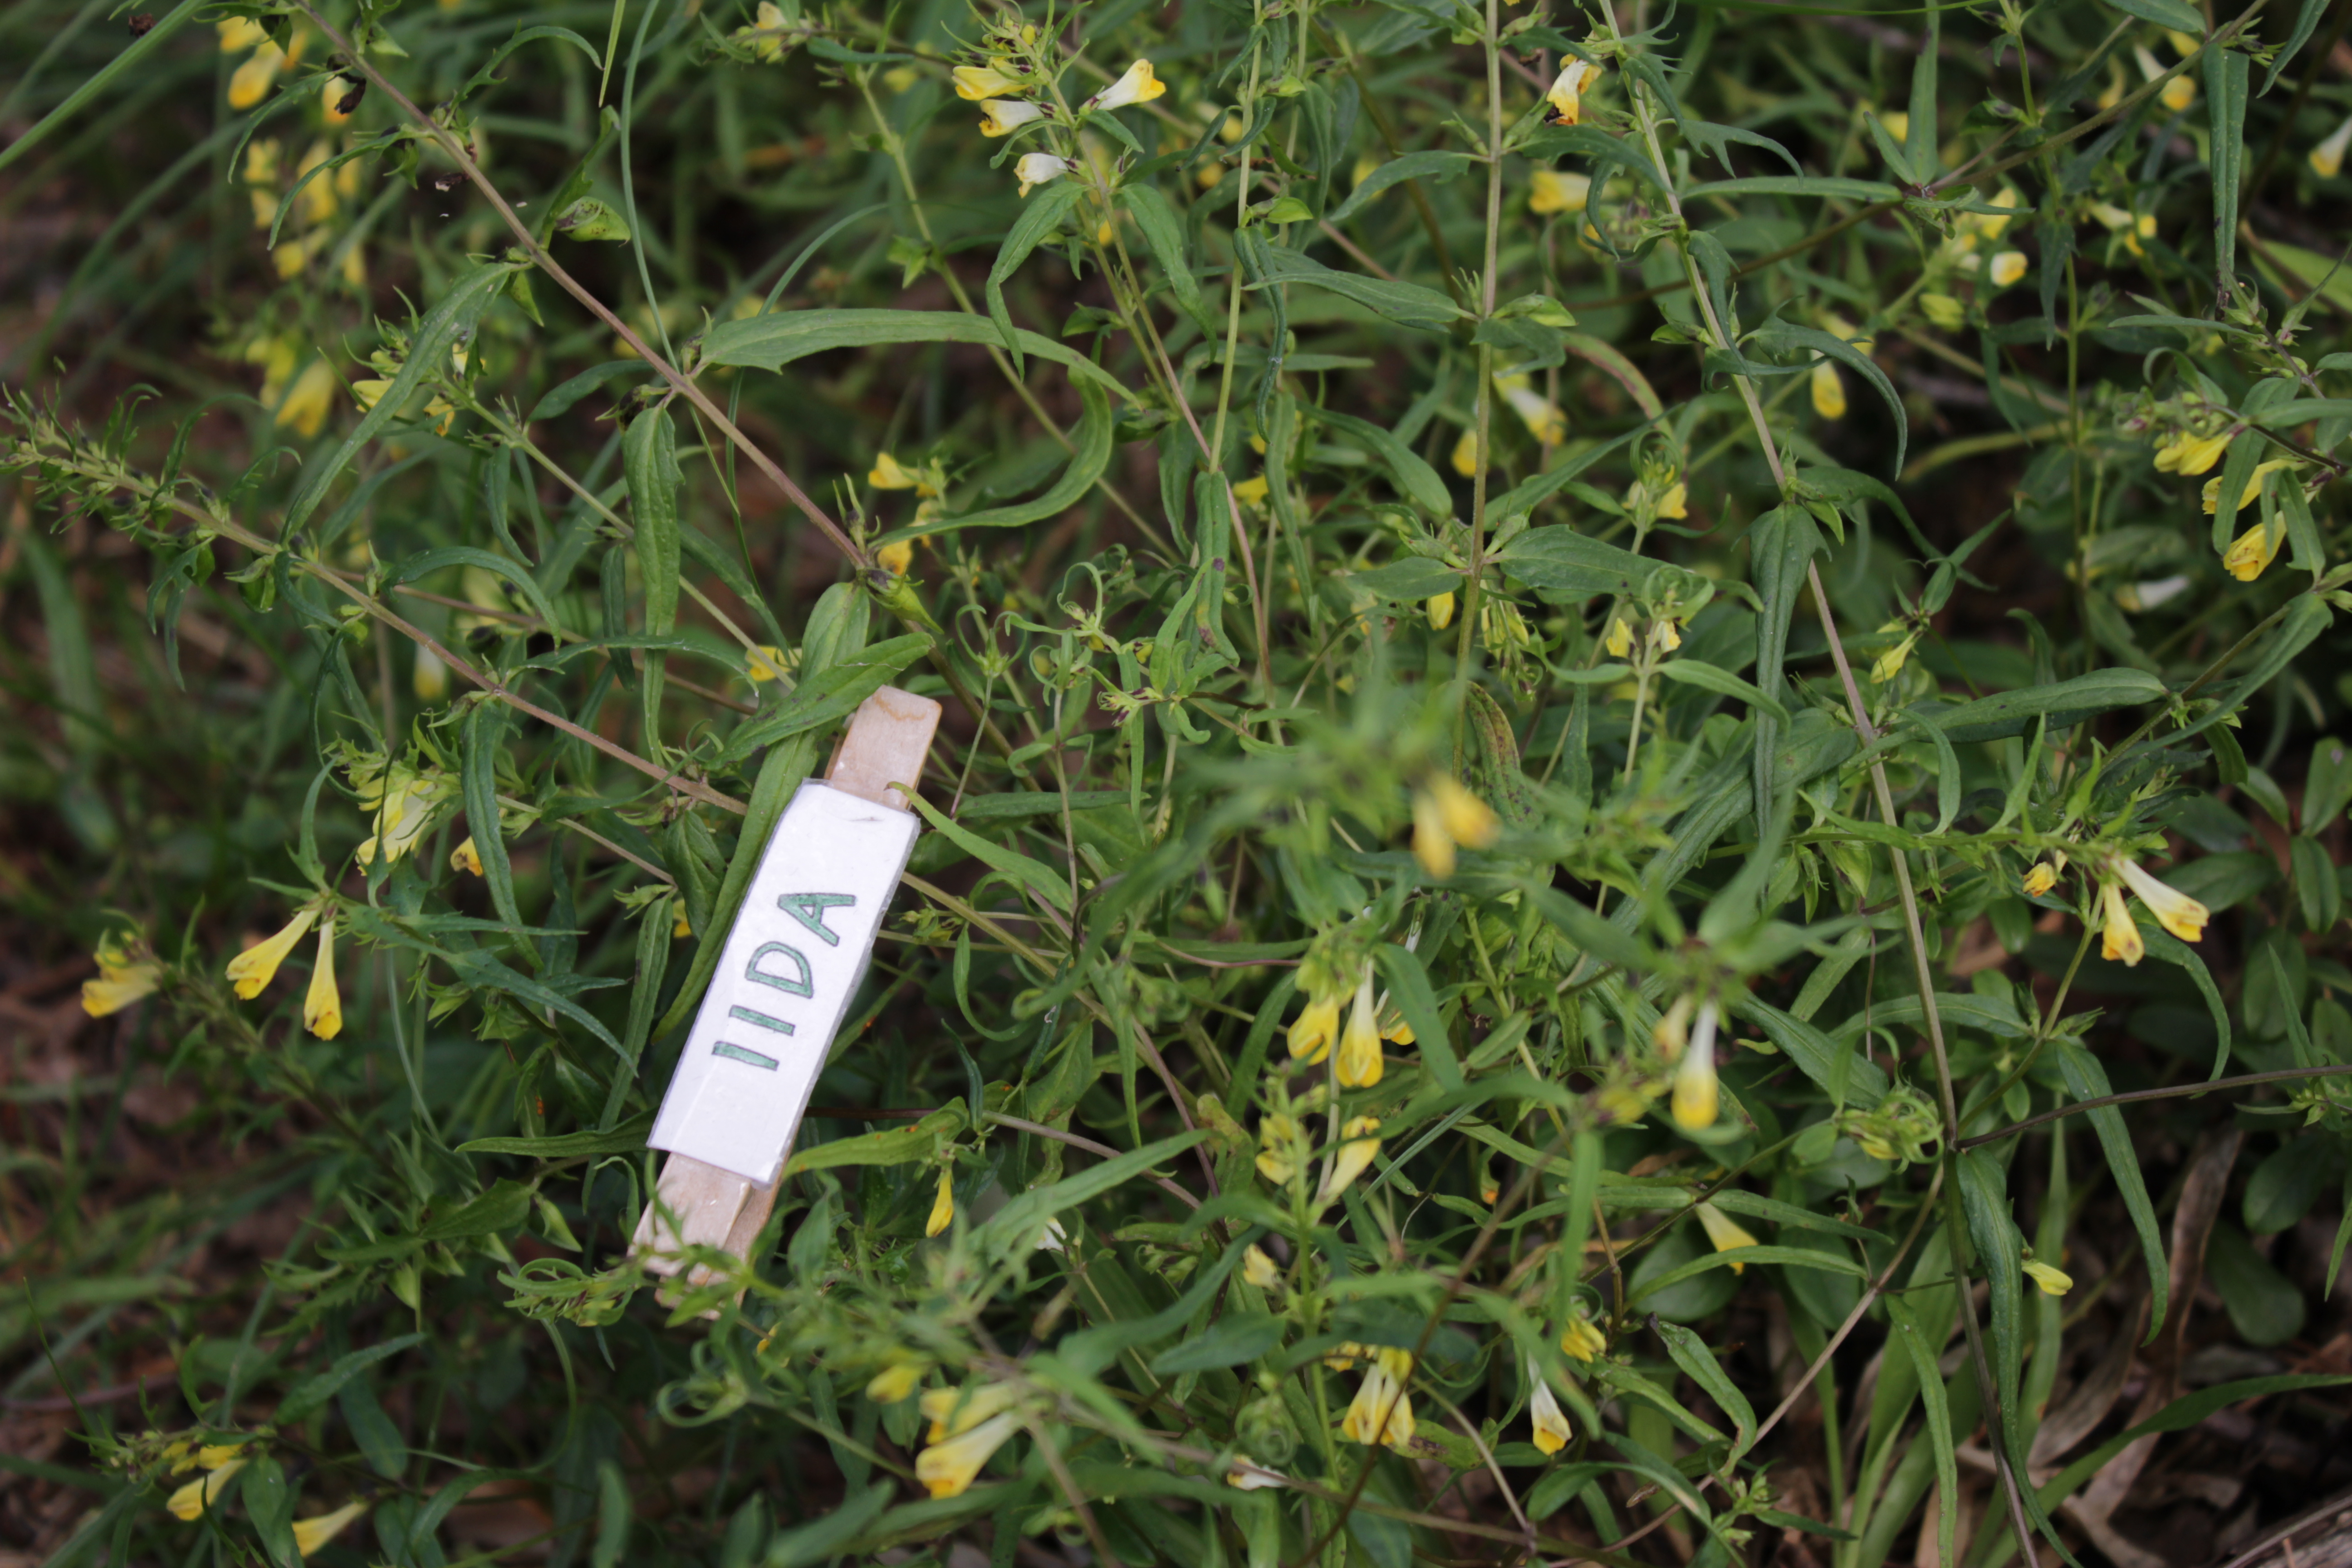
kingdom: Plantae
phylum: Tracheophyta
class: Magnoliopsida
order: Lamiales
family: Orobanchaceae
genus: Melampyrum
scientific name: Melampyrum pratense
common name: Common cow-wheat
